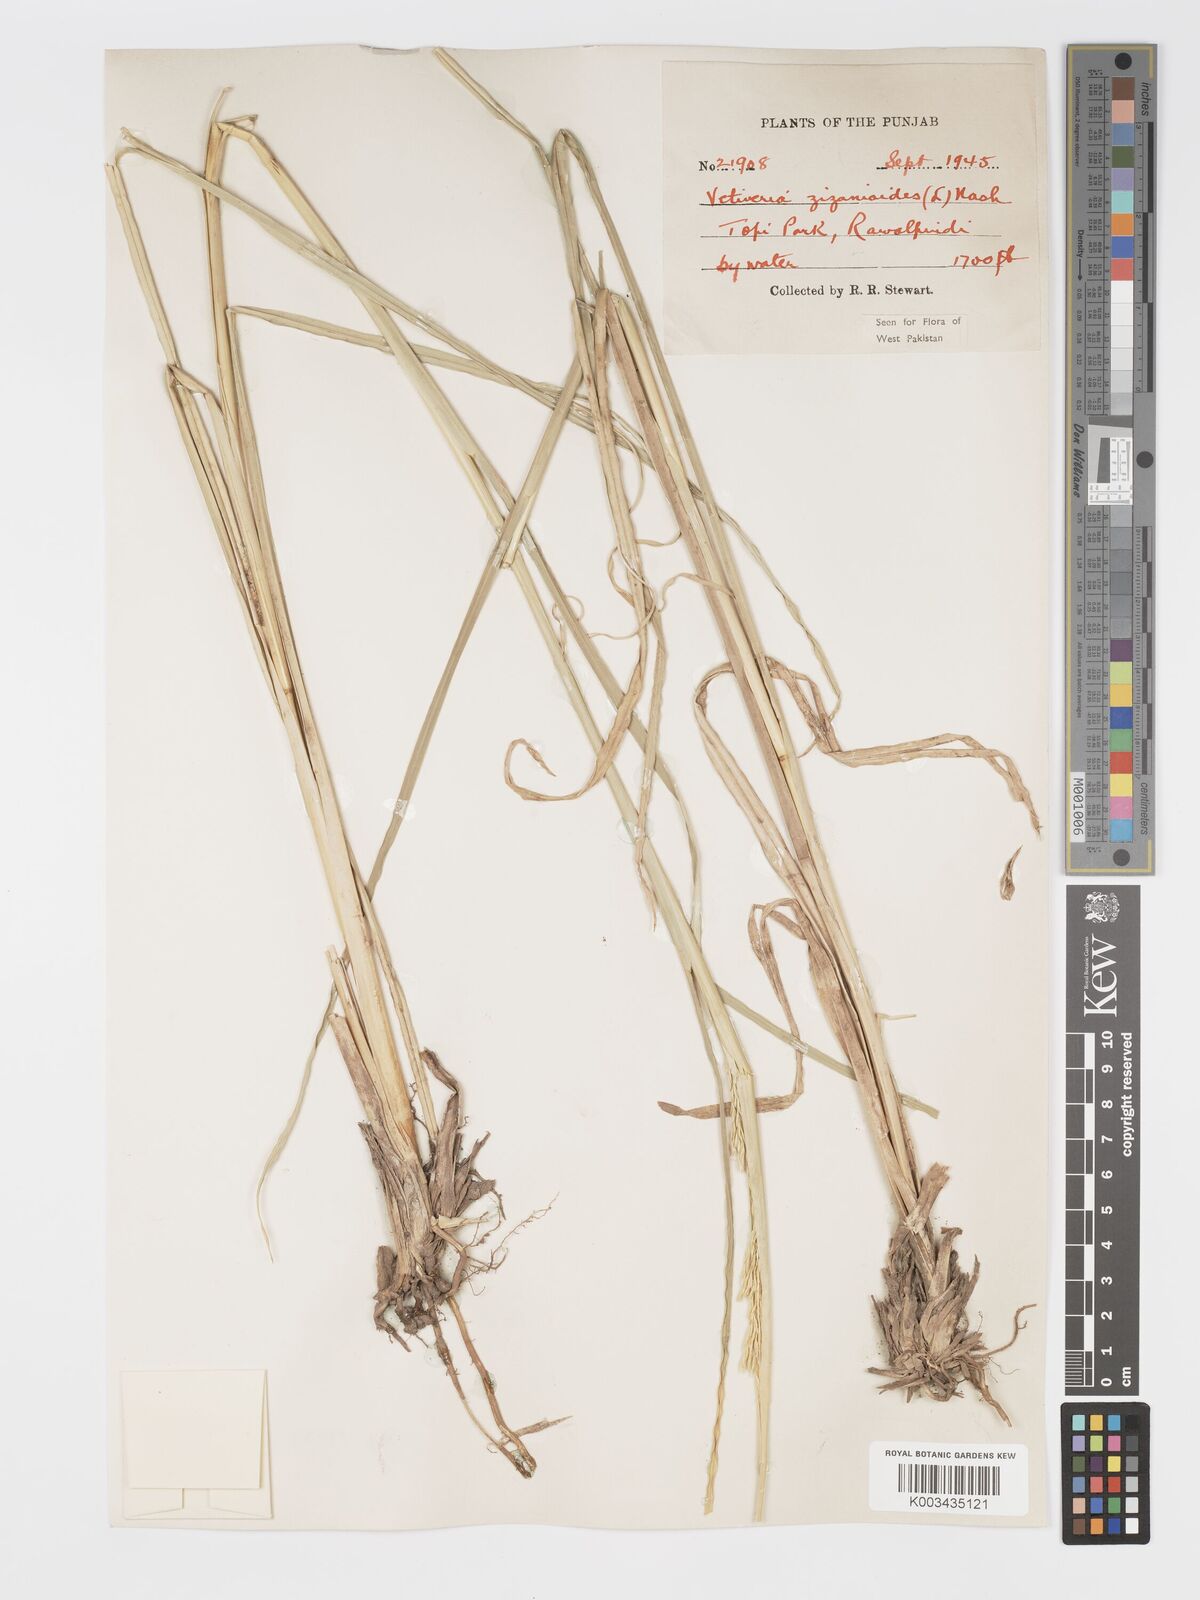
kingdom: Plantae
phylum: Tracheophyta
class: Liliopsida
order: Poales
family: Poaceae
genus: Chrysopogon
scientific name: Chrysopogon zizanioides
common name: False beardgrass
